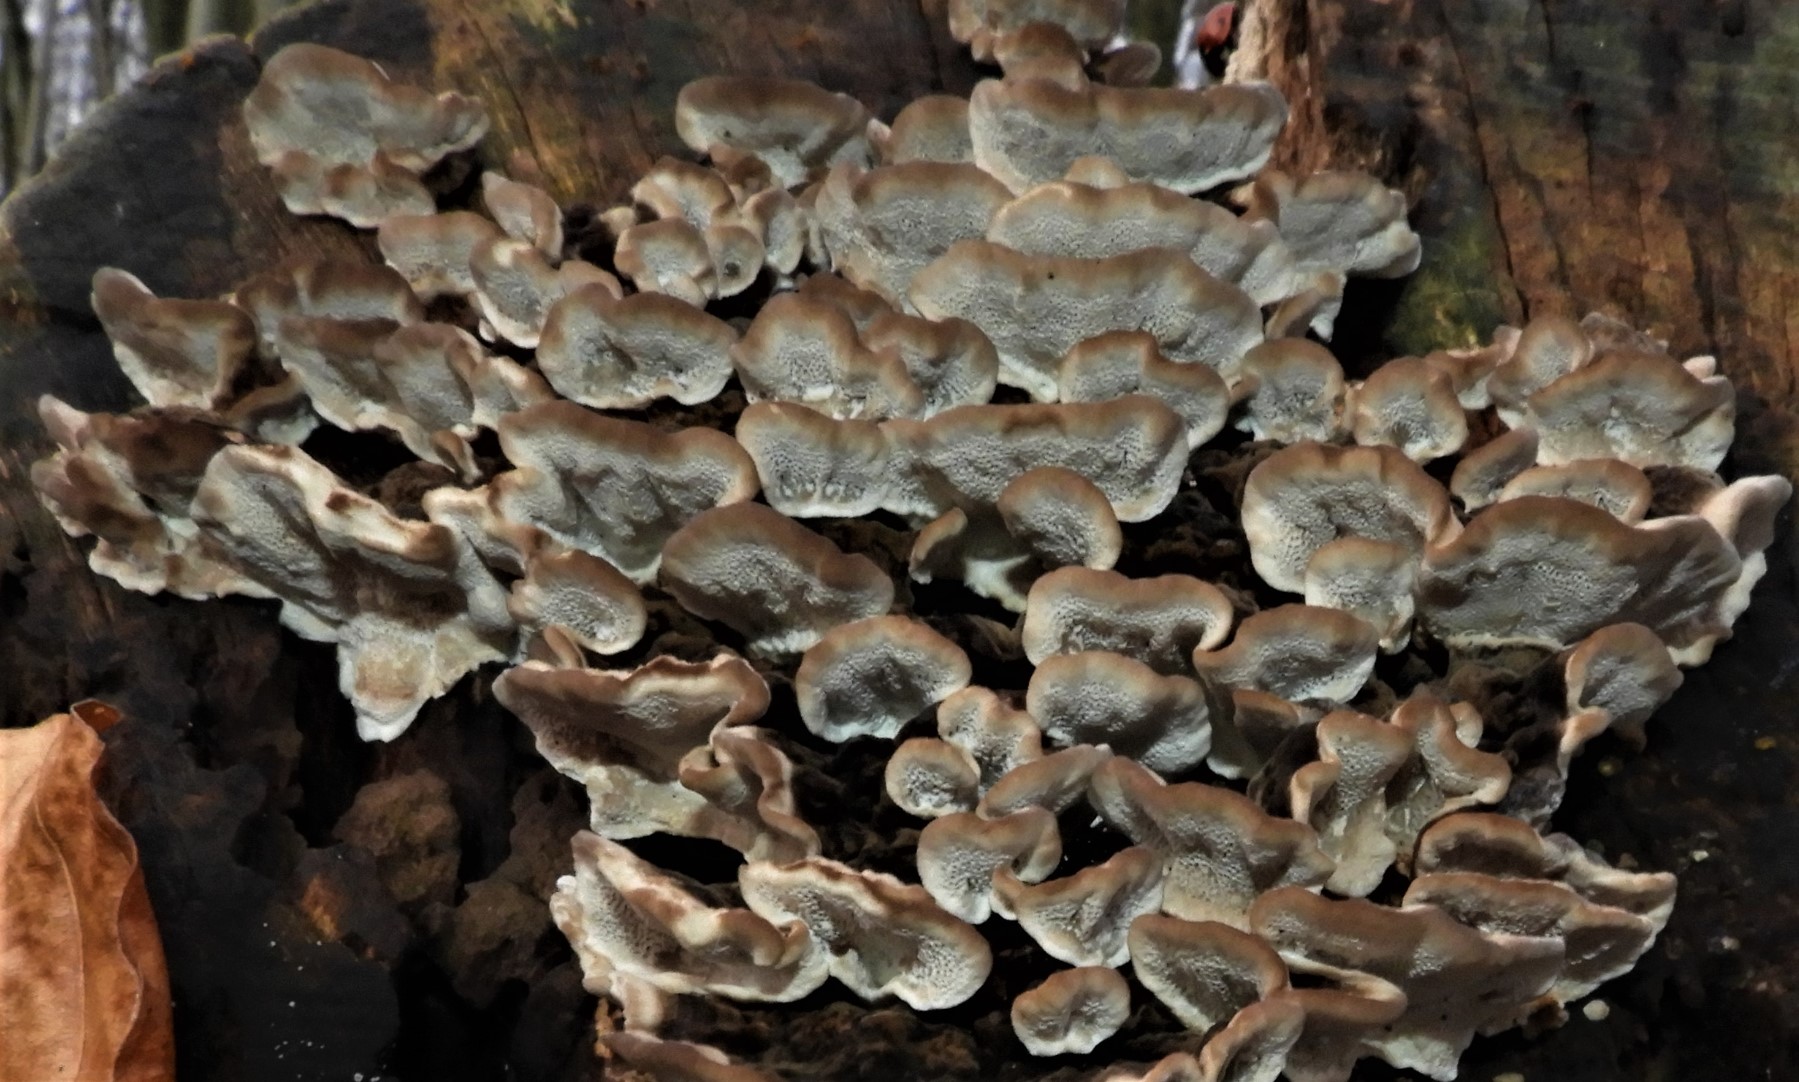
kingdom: Fungi
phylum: Basidiomycota
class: Agaricomycetes
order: Polyporales
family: Phanerochaetaceae
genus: Bjerkandera
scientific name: Bjerkandera adusta
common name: sveden sodporesvamp
